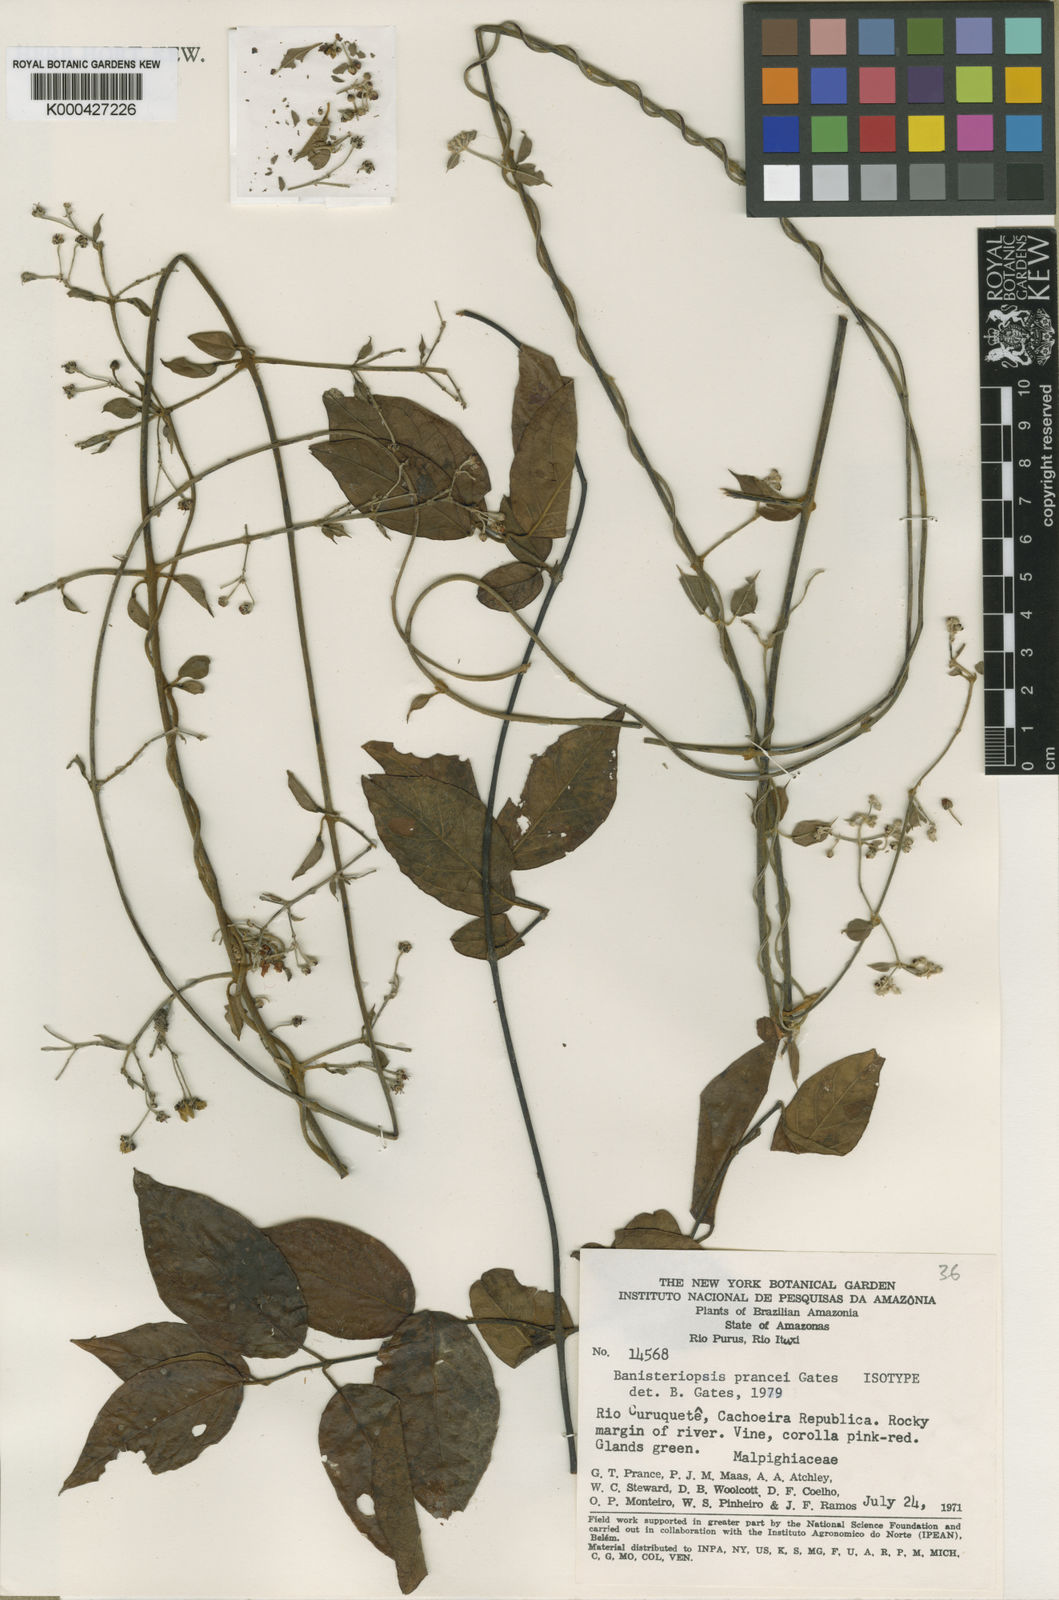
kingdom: Plantae
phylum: Tracheophyta
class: Magnoliopsida
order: Malpighiales
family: Malpighiaceae
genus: Banisteriopsis
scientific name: Banisteriopsis prancei
